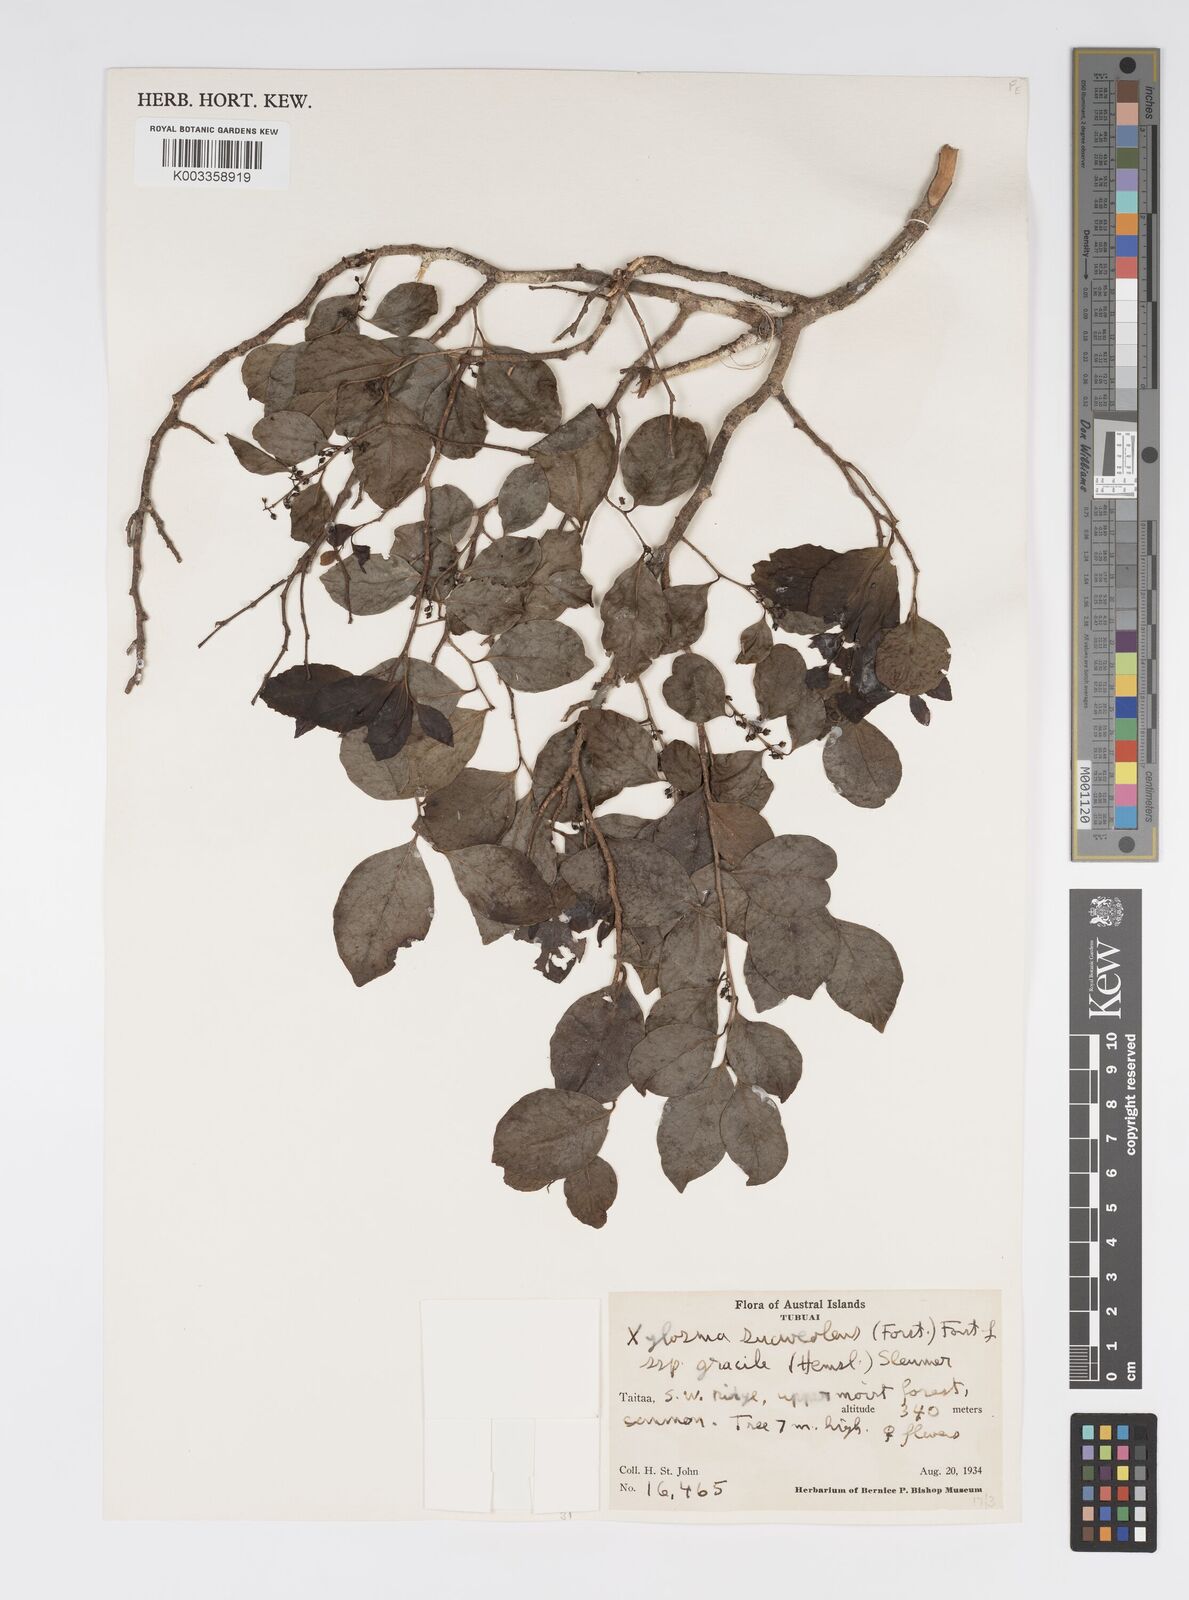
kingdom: Plantae
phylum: Tracheophyta
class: Magnoliopsida
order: Malpighiales
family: Salicaceae
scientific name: Salicaceae
